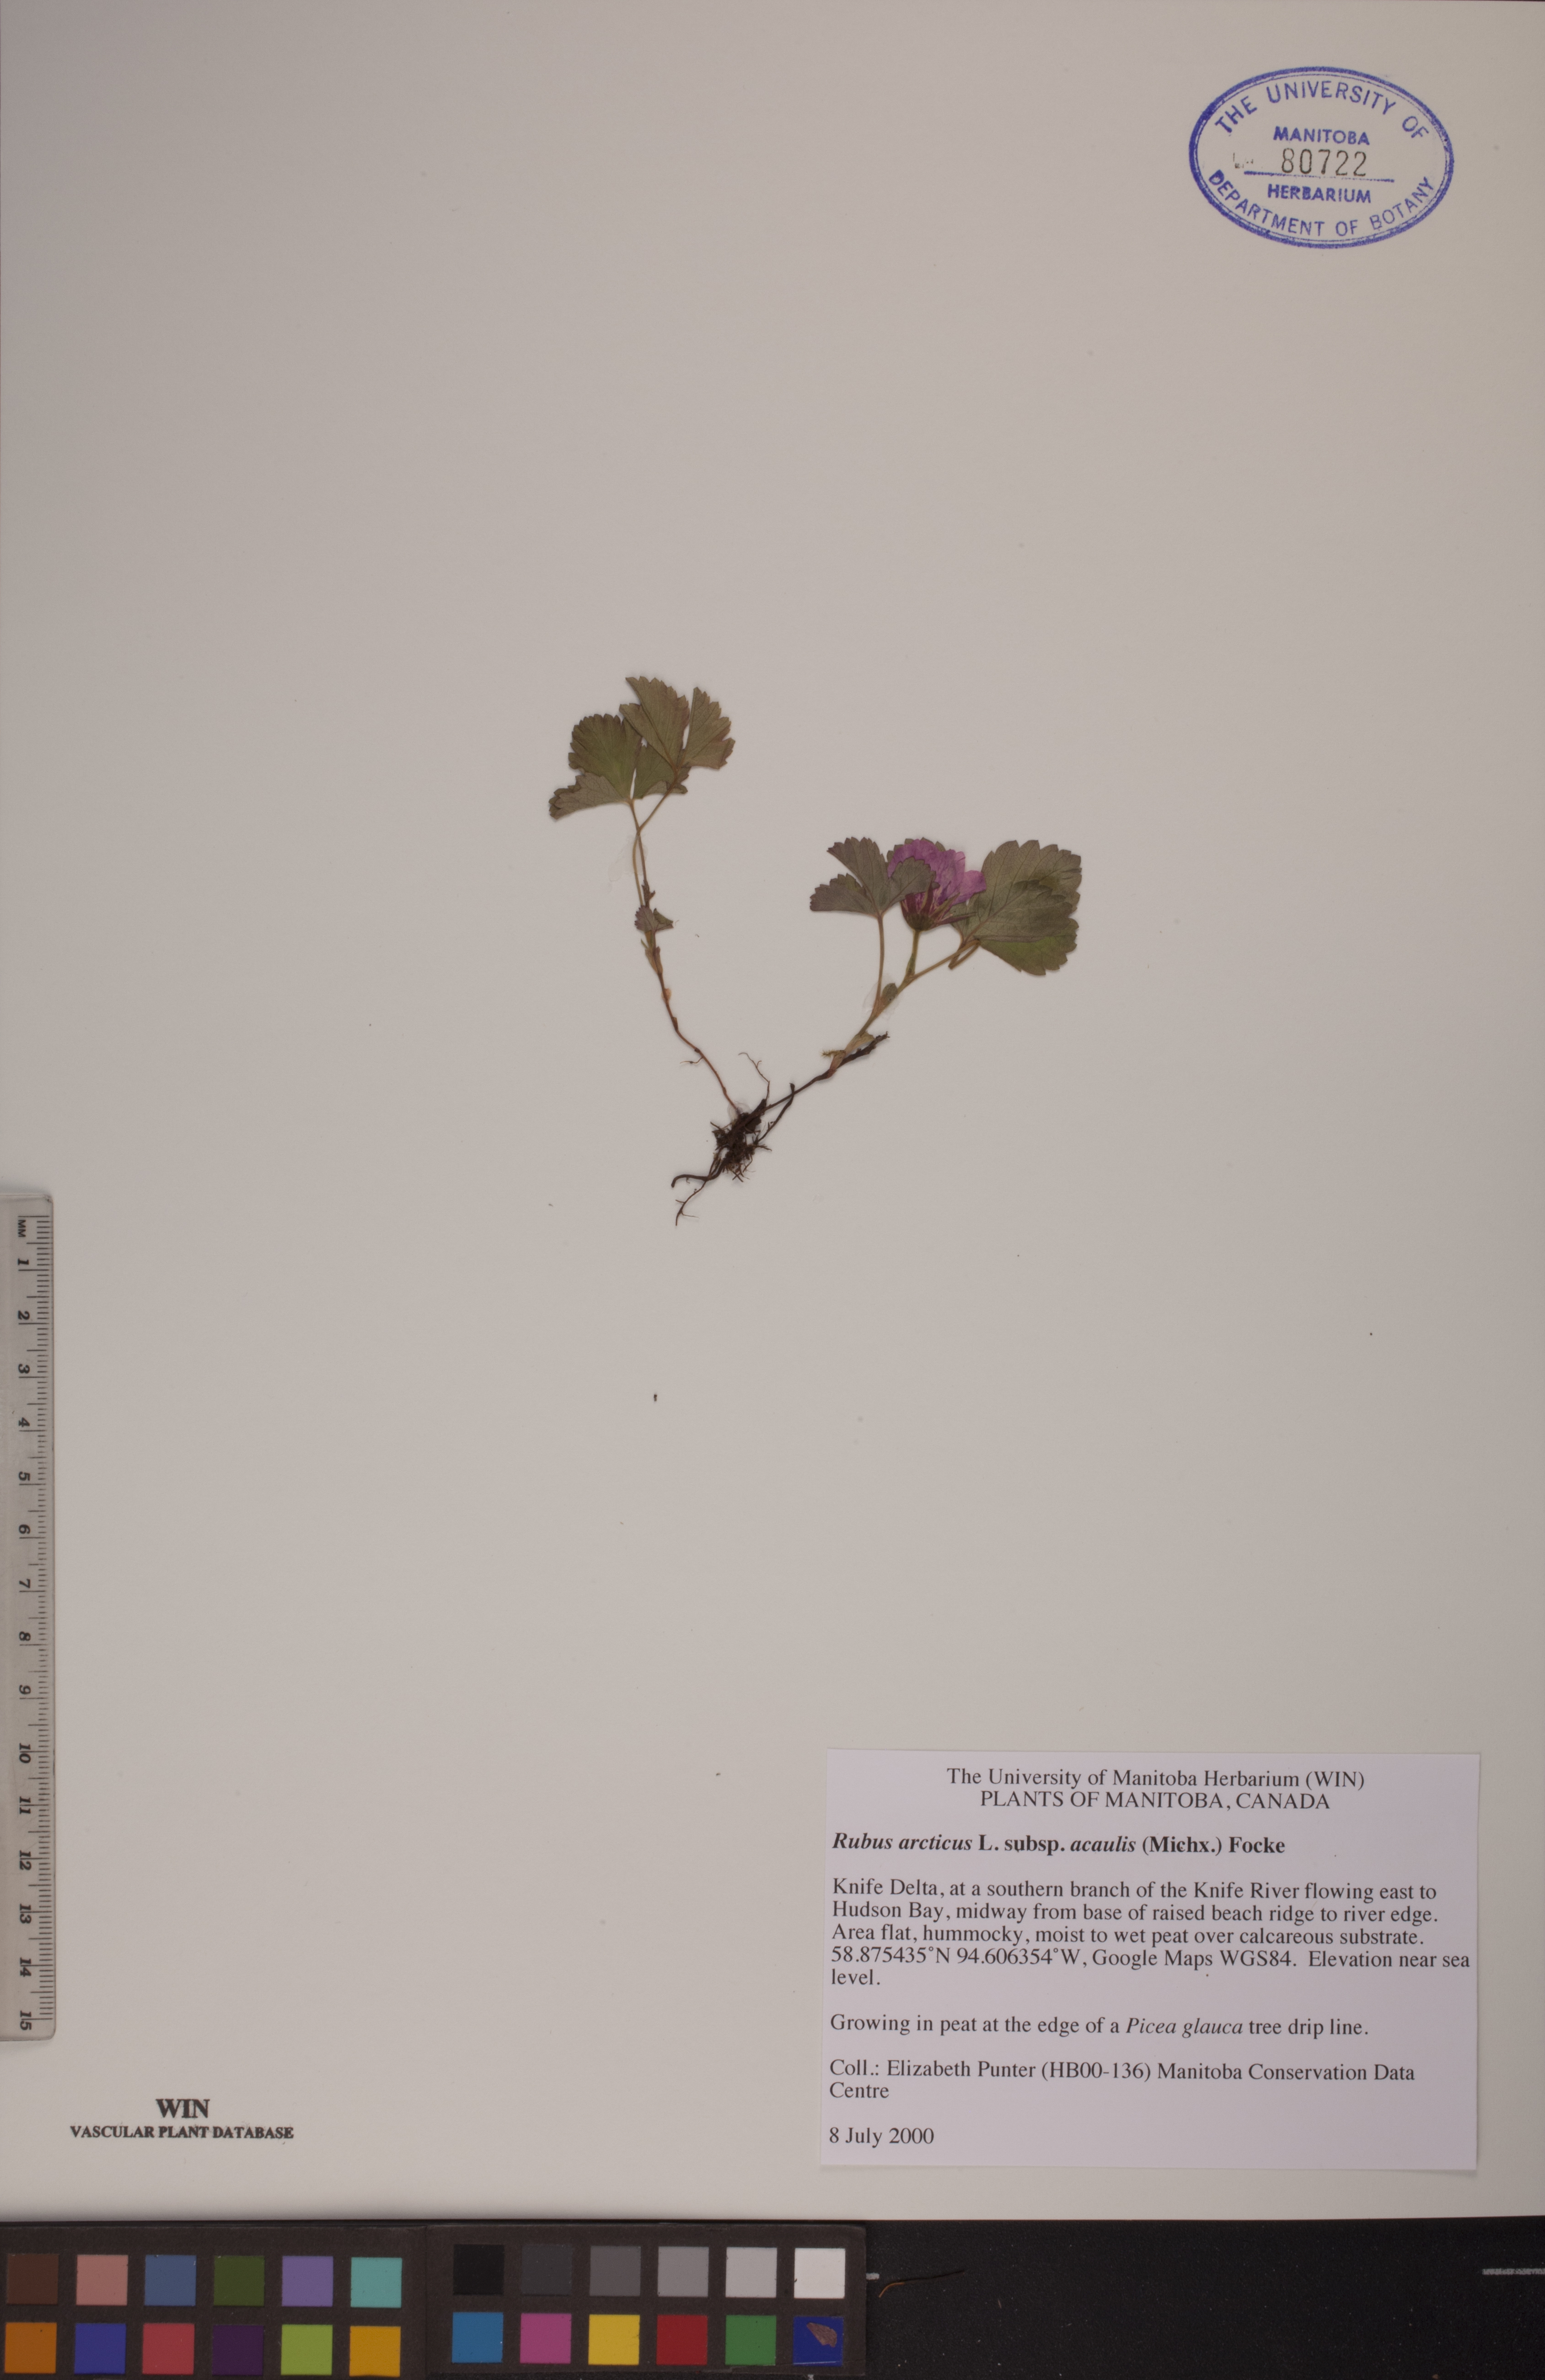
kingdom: Plantae
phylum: Tracheophyta
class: Magnoliopsida
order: Rosales
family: Rosaceae
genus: Rubus
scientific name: Rubus arcticus
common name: Arctic bramble
